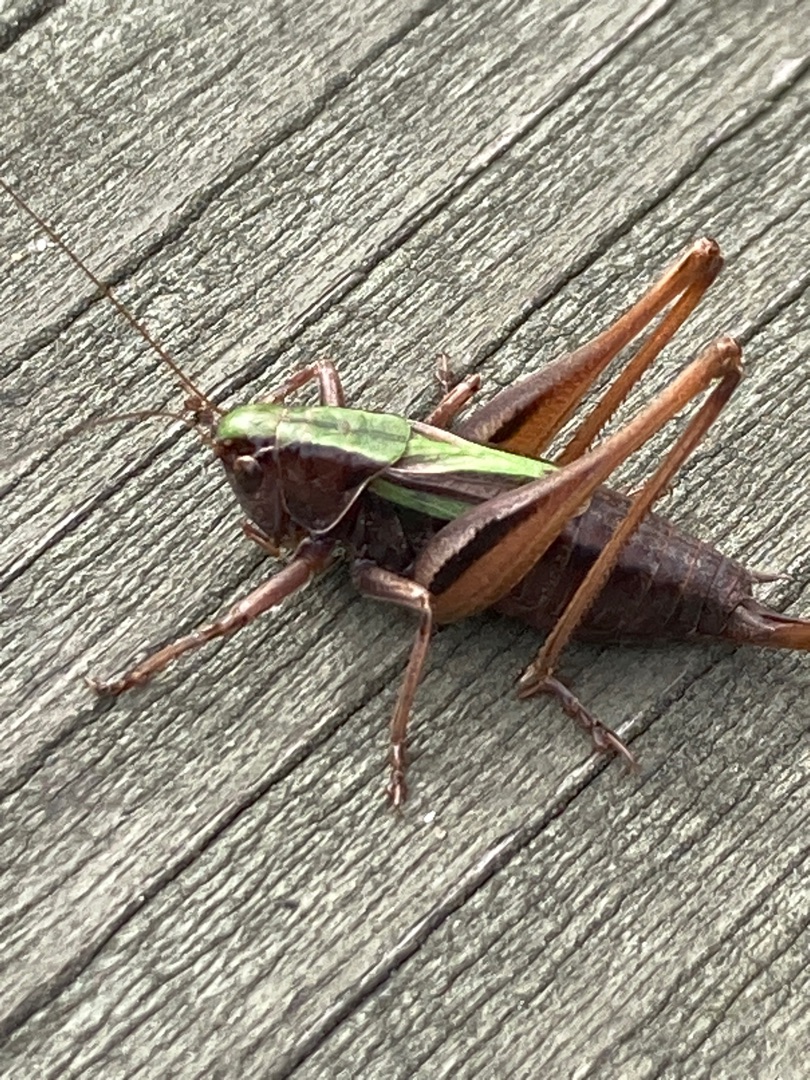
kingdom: Animalia
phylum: Arthropoda
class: Insecta
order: Orthoptera
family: Tettigoniidae
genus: Metrioptera
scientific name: Metrioptera brachyptera
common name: Hedegræshoppe
